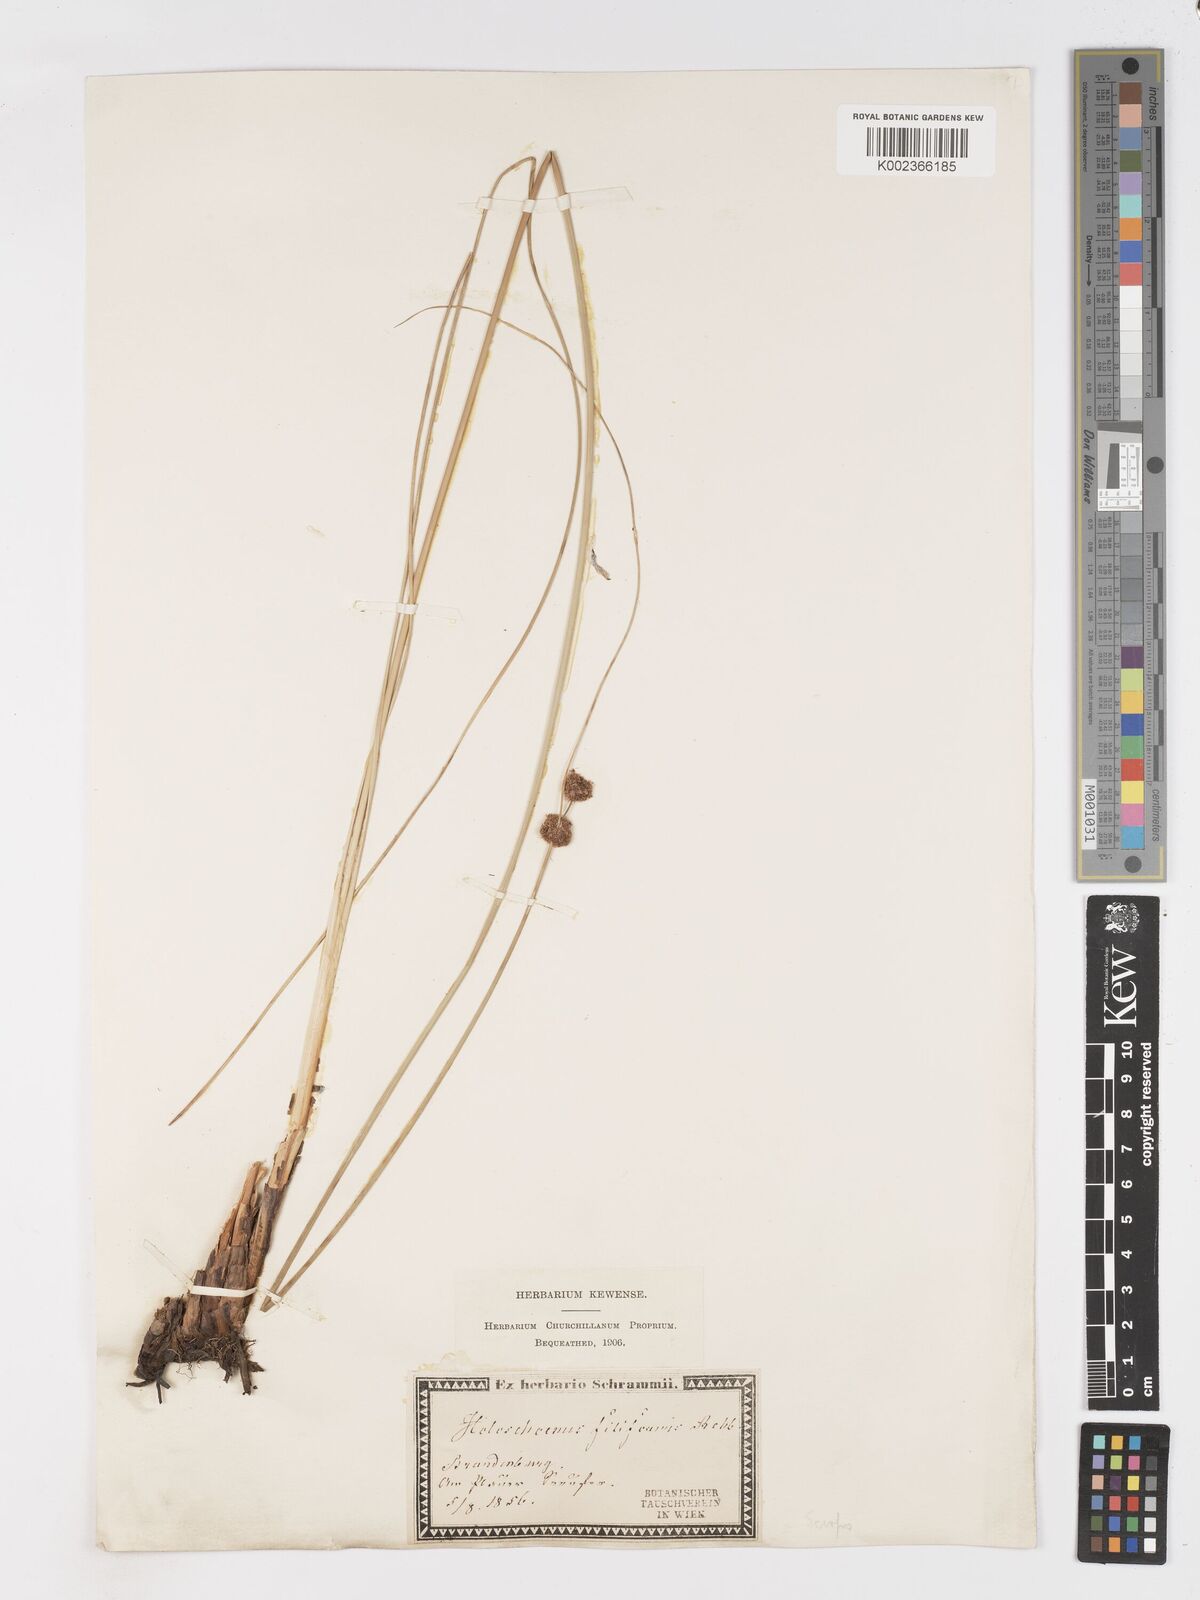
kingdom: Plantae
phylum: Tracheophyta
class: Liliopsida
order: Poales
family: Cyperaceae
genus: Scirpoides
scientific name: Scirpoides holoschoenus
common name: Round-headed club-rush
